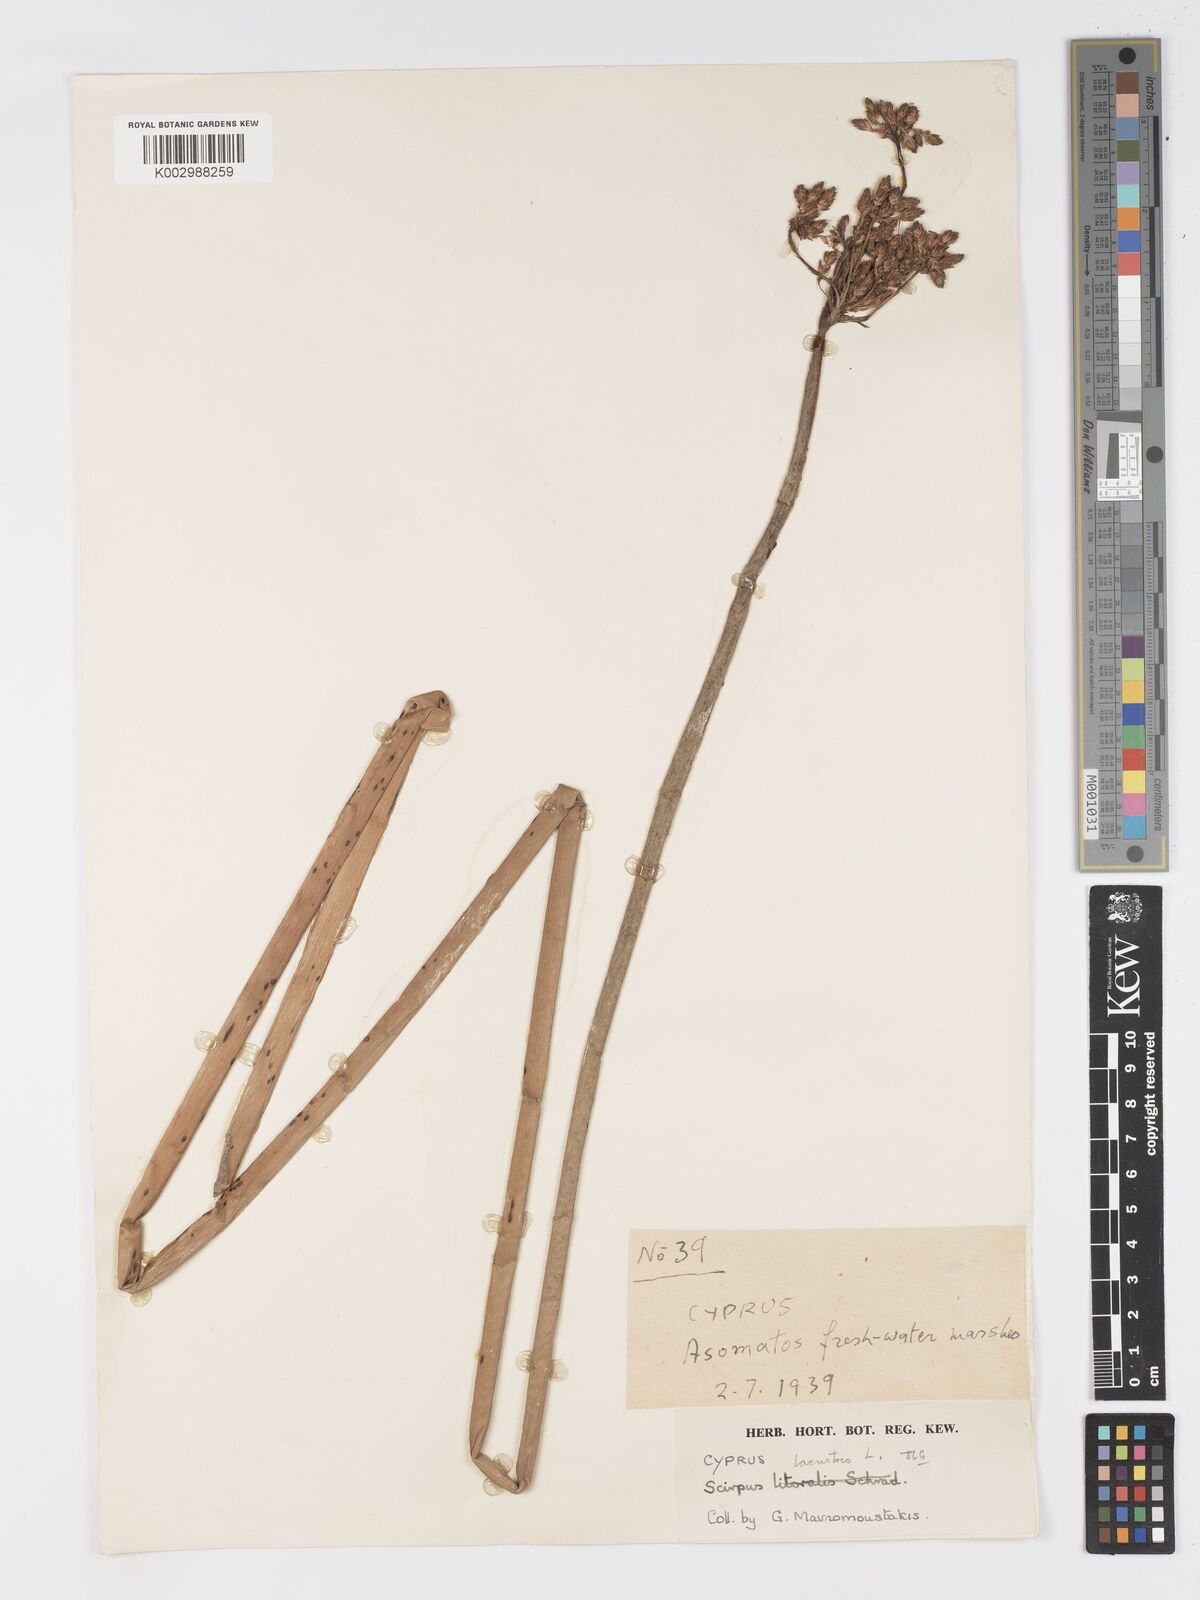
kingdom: Plantae
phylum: Tracheophyta
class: Liliopsida
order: Poales
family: Cyperaceae
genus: Schoenoplectus
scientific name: Schoenoplectus
